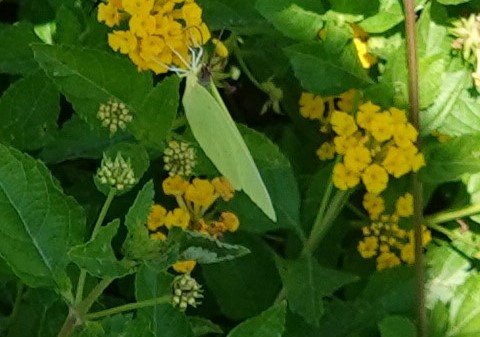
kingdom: Animalia
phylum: Arthropoda
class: Insecta
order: Lepidoptera
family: Pieridae
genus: Phoebis
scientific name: Phoebis sennae
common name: Cloudless Sulphur
